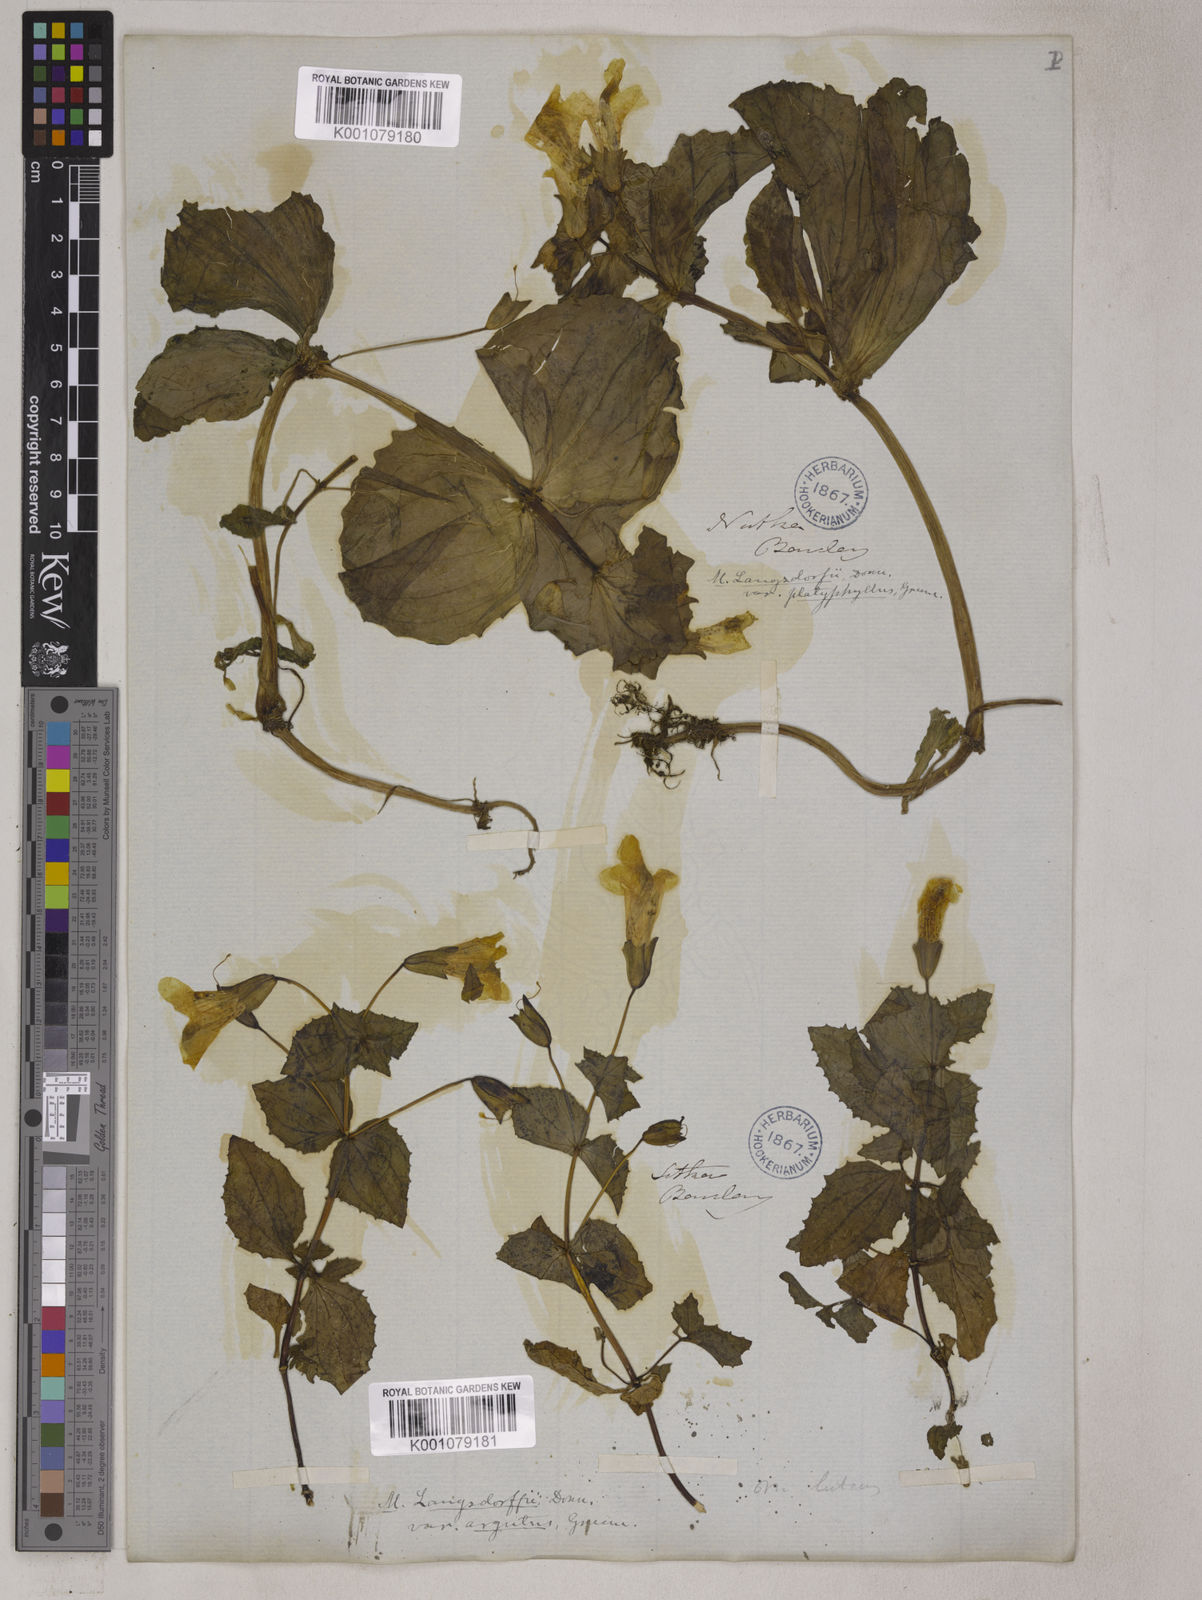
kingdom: Plantae
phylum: Tracheophyta
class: Magnoliopsida
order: Lamiales
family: Phrymaceae
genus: Erythranthe
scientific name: Erythranthe guttata
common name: Monkeyflower
